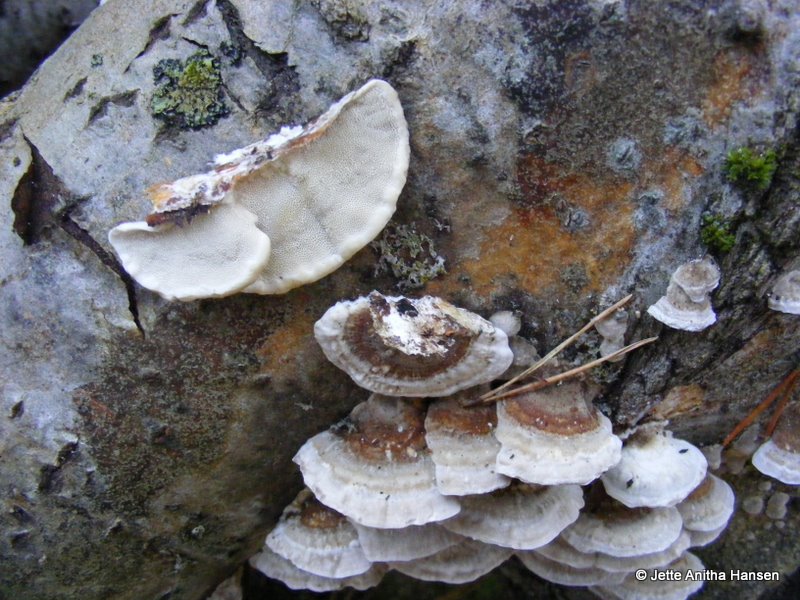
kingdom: Fungi
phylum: Basidiomycota
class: Agaricomycetes
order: Polyporales
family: Polyporaceae
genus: Trametes
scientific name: Trametes ochracea
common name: bæltet læderporesvamp
